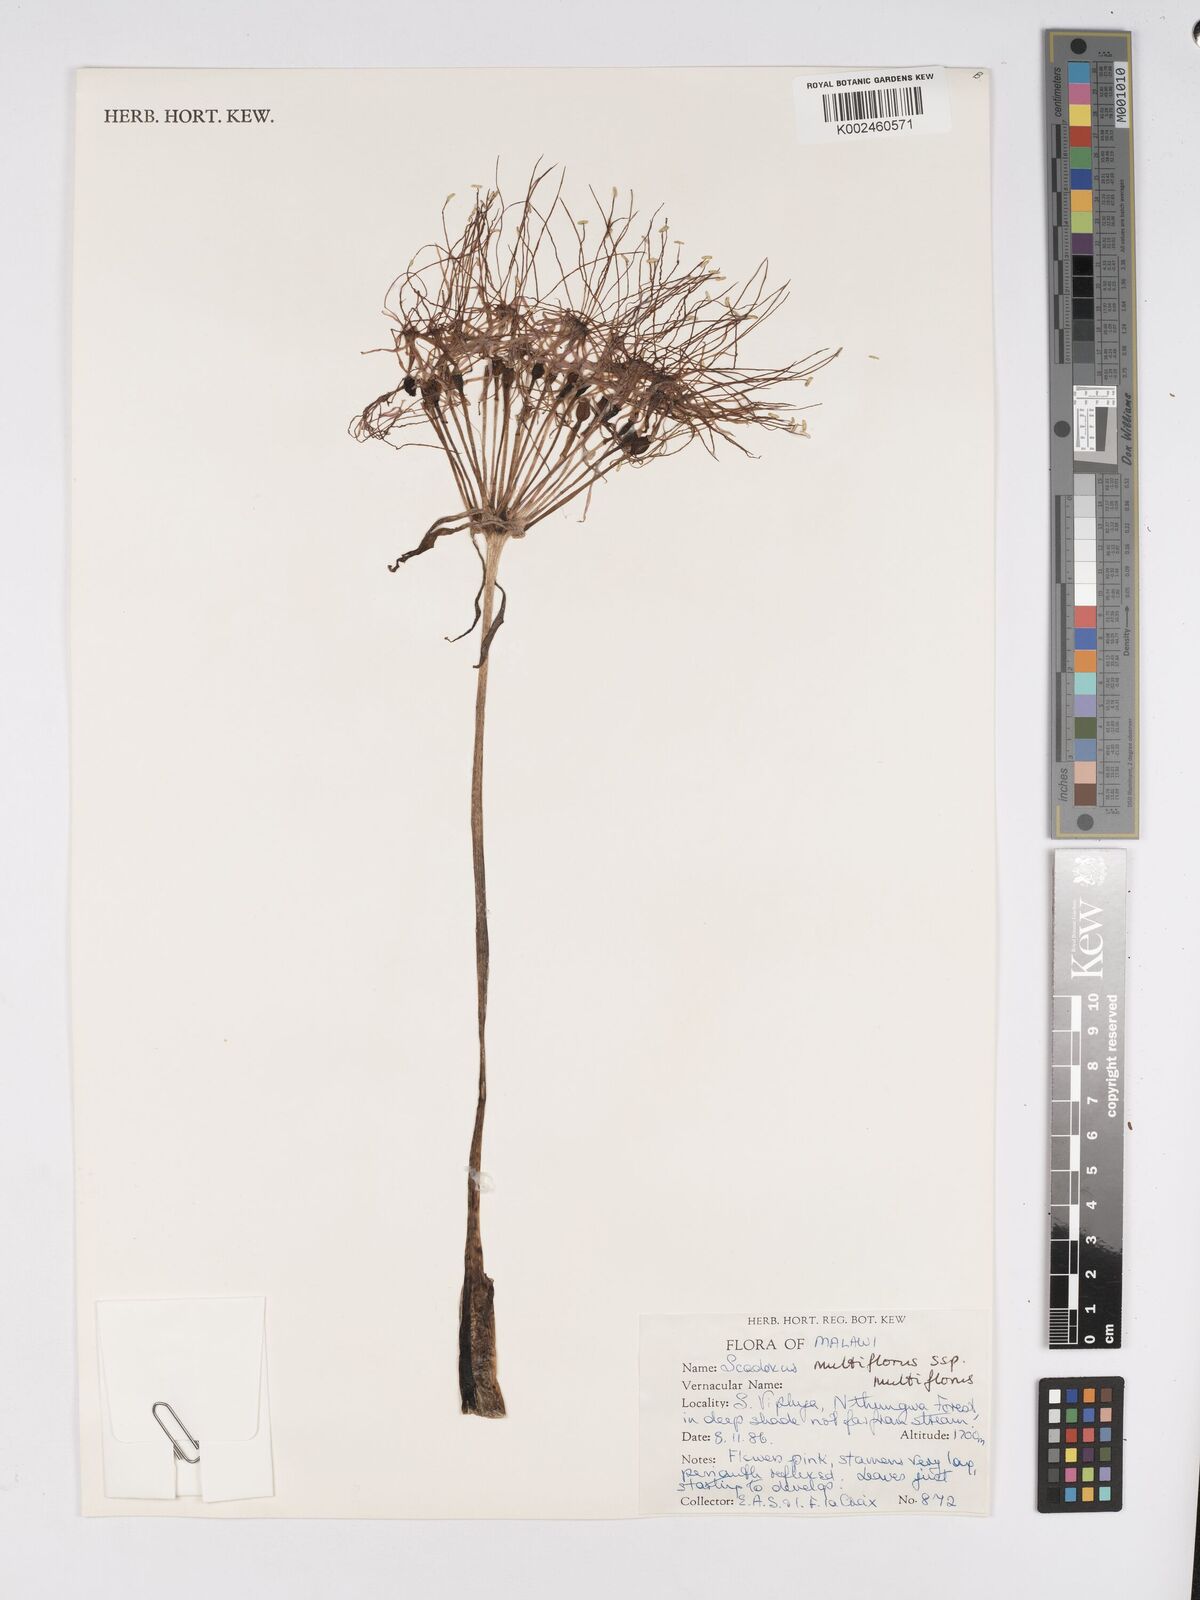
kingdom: Plantae
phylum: Tracheophyta
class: Liliopsida
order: Asparagales
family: Amaryllidaceae
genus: Scadoxus
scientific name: Scadoxus multiflorus
